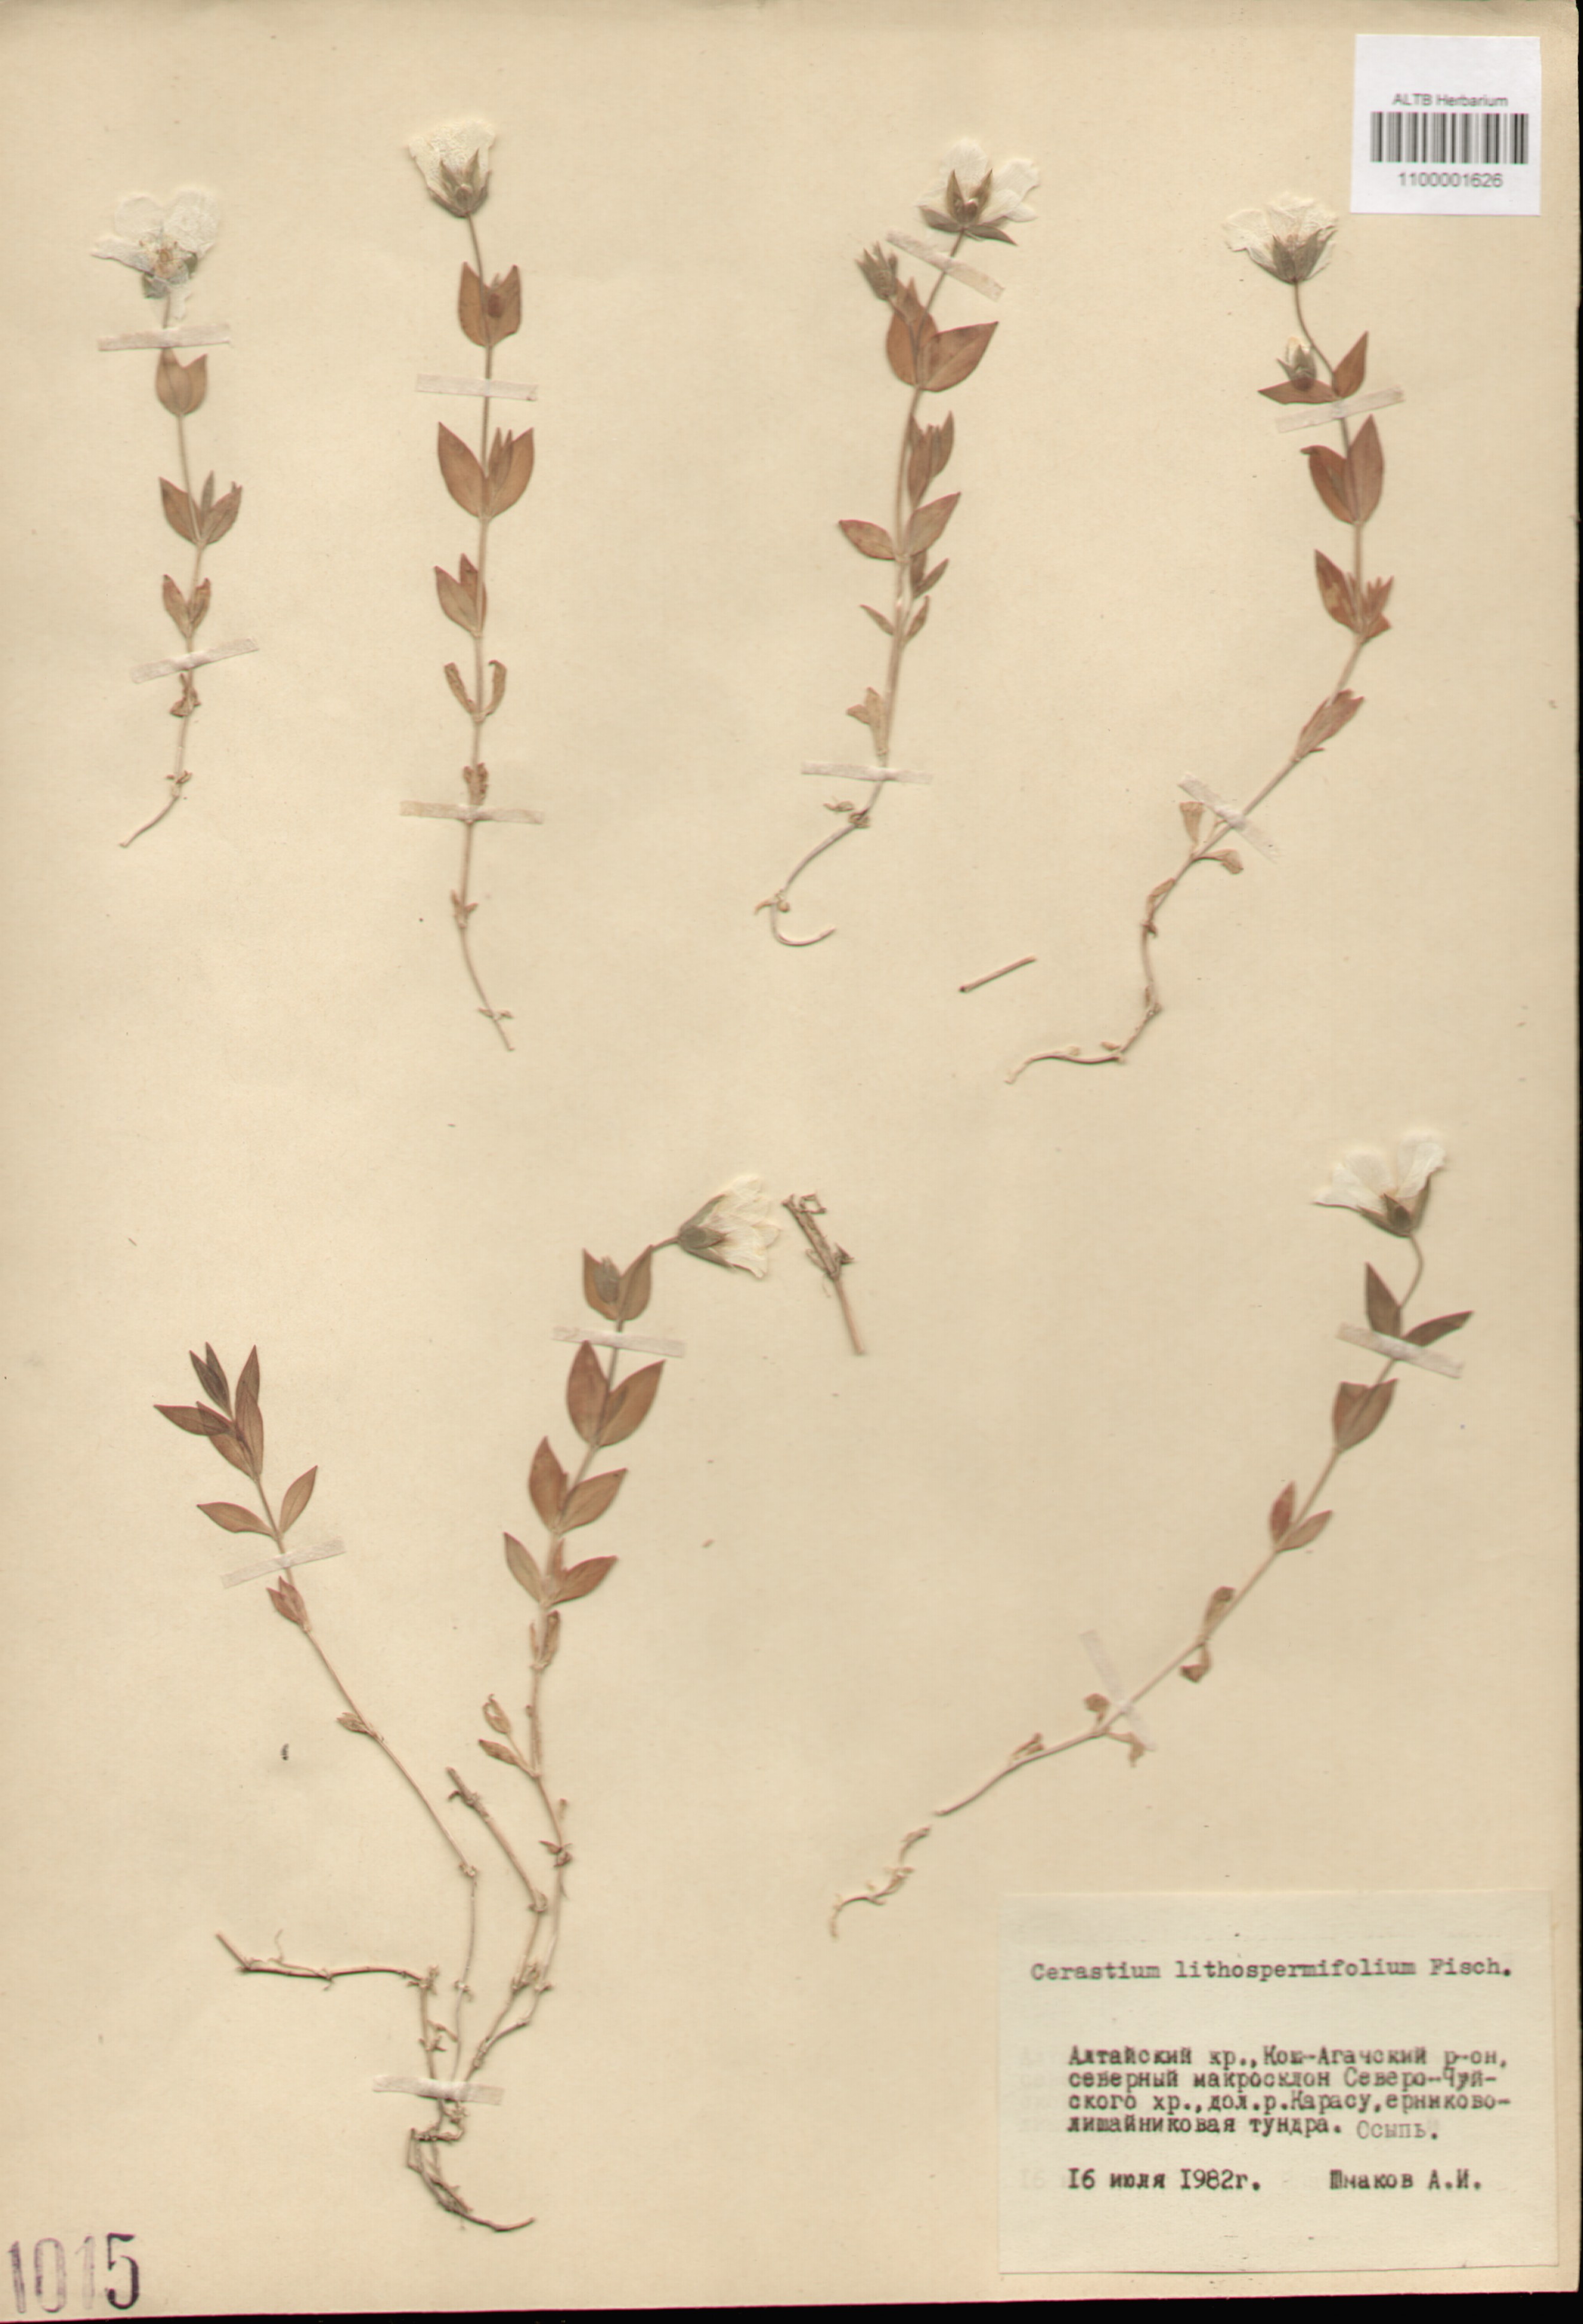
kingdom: Plantae
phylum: Tracheophyta
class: Magnoliopsida
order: Caryophyllales
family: Caryophyllaceae
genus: Cerastium
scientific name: Cerastium lithospermifolium
